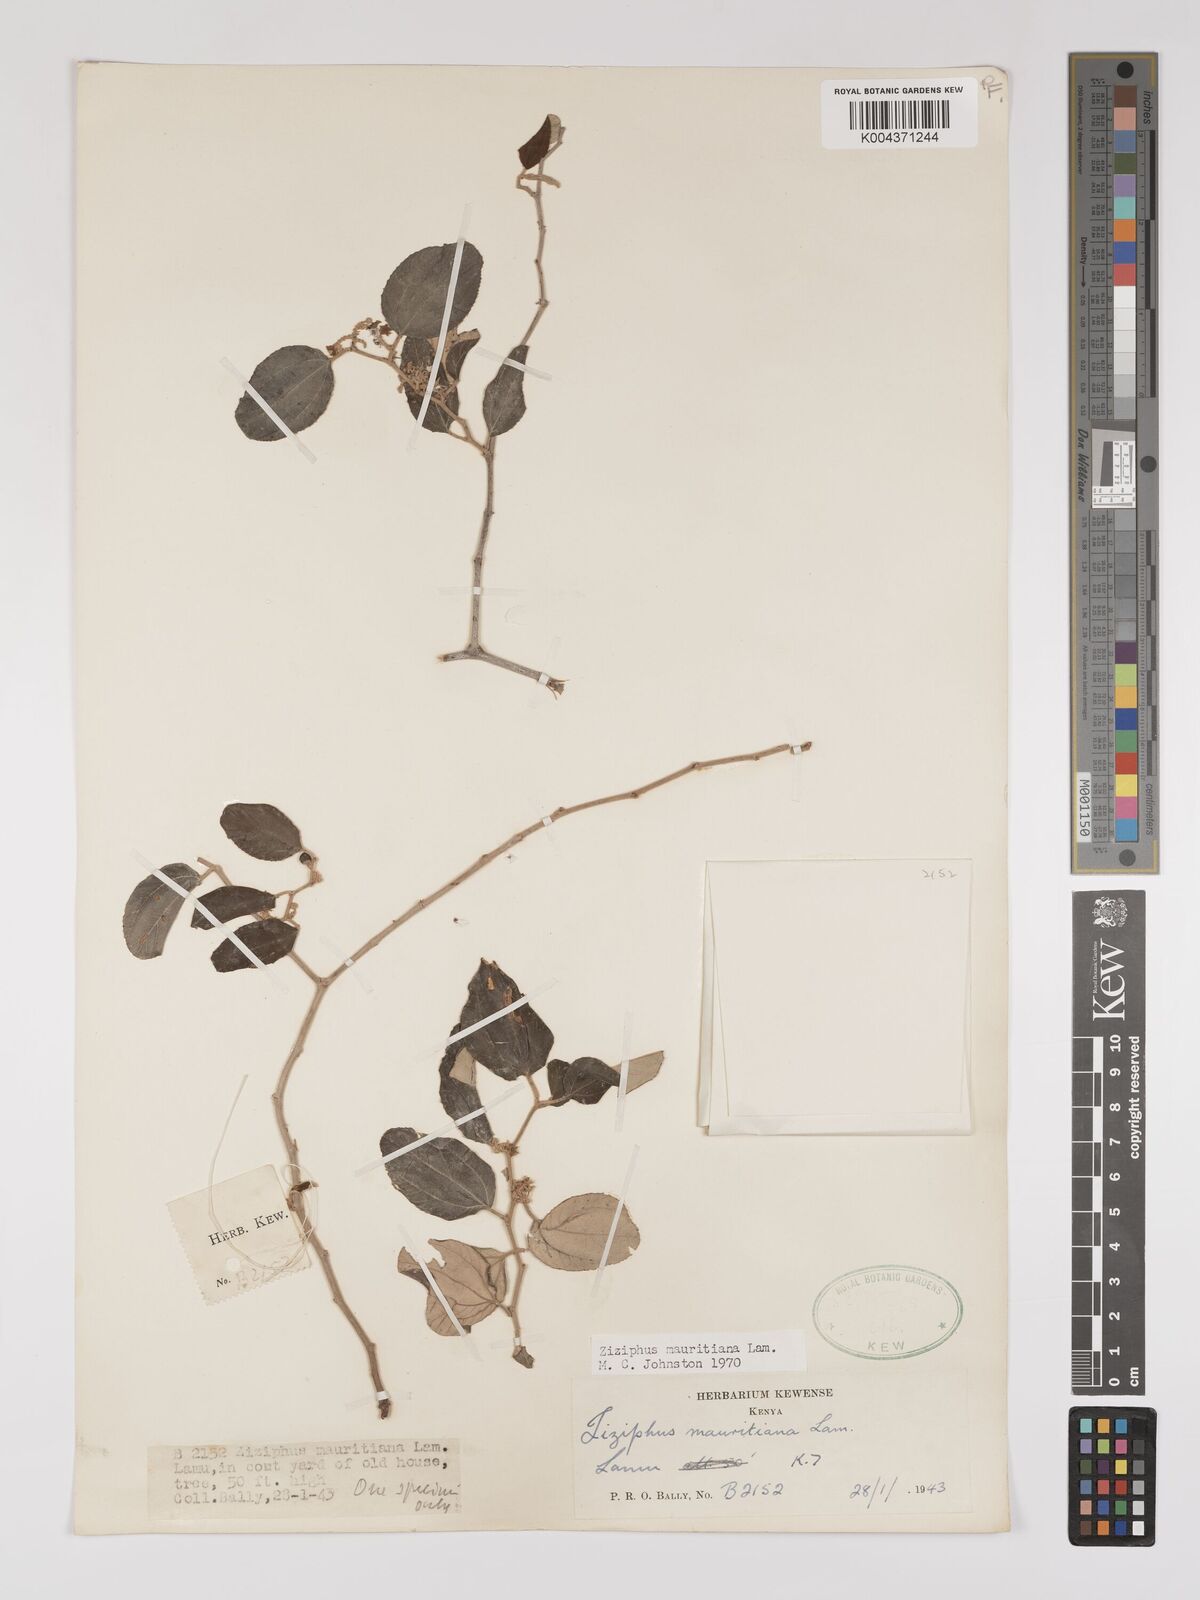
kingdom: Plantae
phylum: Tracheophyta
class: Magnoliopsida
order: Rosales
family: Rhamnaceae
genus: Ziziphus
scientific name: Ziziphus mauritiana
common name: Indian jujube
